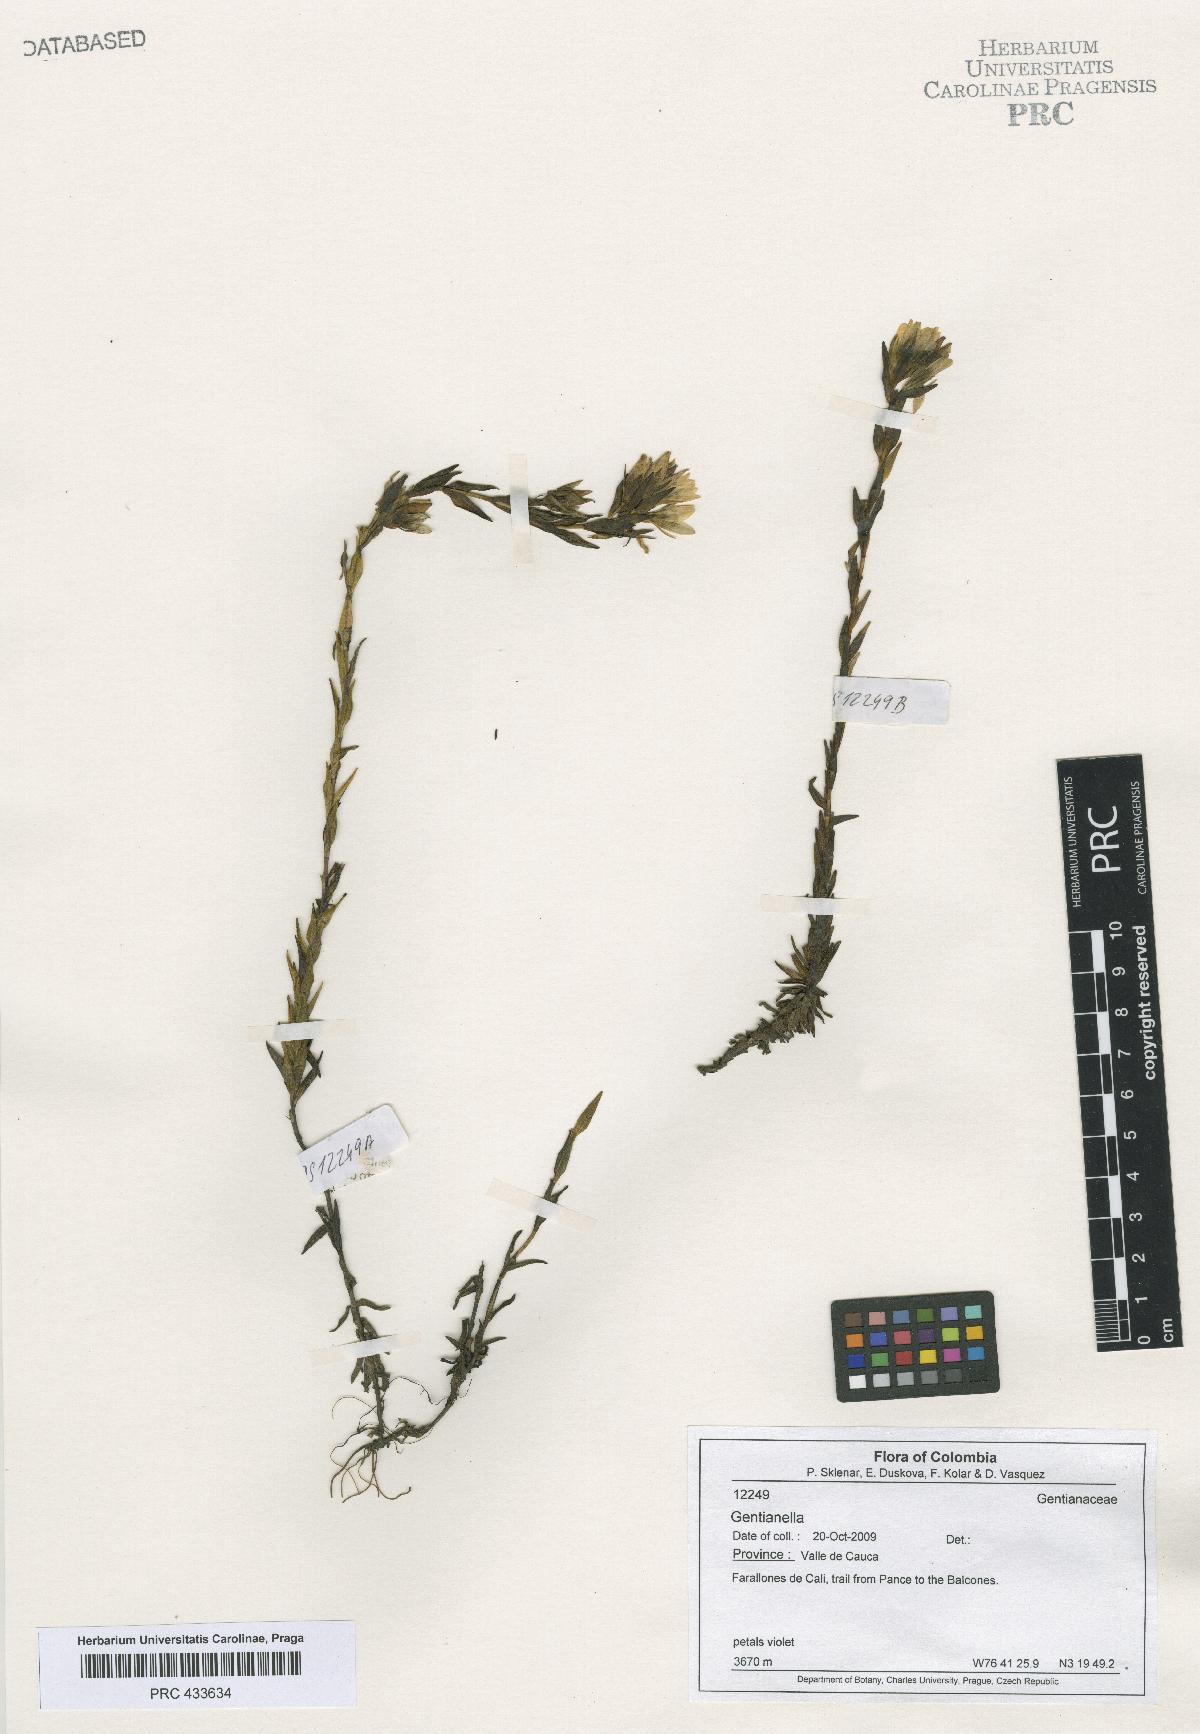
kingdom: Plantae
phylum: Tracheophyta
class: Magnoliopsida
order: Gentianales
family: Gentianaceae
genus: Gentianella
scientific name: Gentianella
